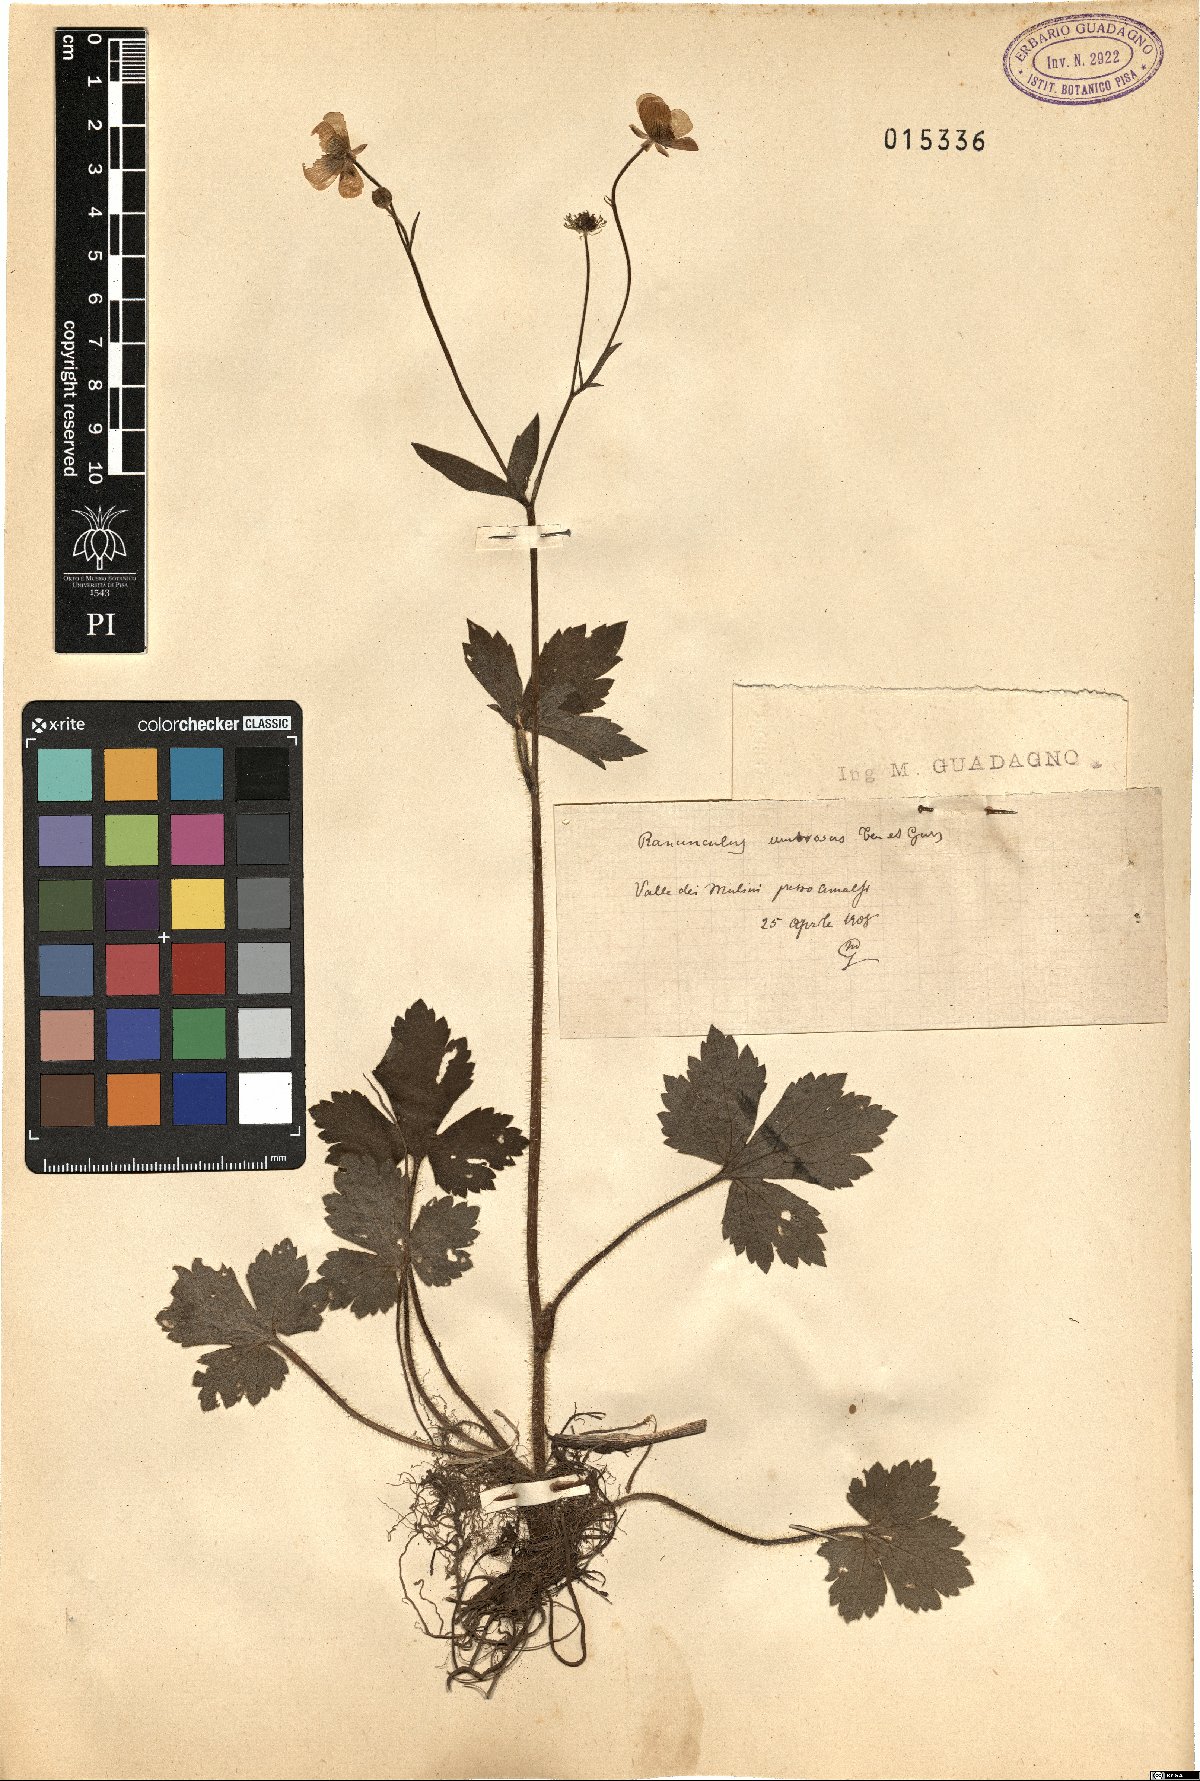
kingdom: Plantae
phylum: Tracheophyta
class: Magnoliopsida
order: Ranunculales
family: Ranunculaceae
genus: Ranunculus
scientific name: Ranunculus lanuginosus
